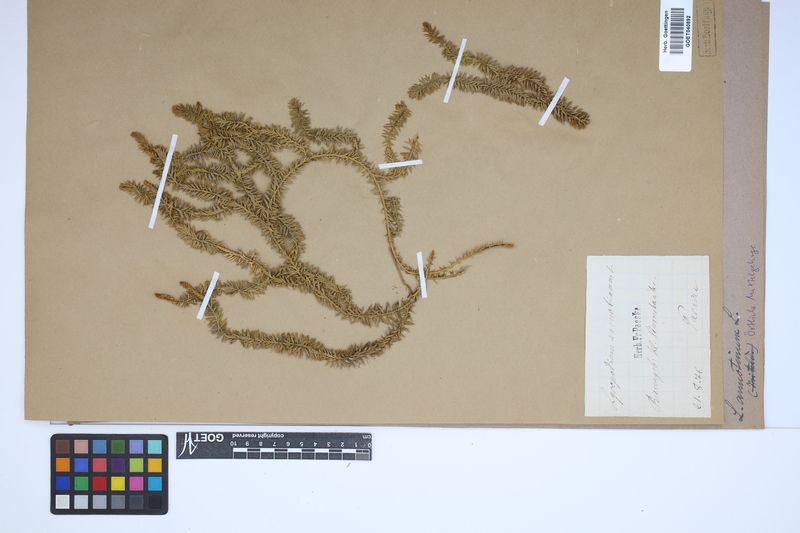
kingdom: Plantae
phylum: Tracheophyta
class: Lycopodiopsida
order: Lycopodiales
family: Lycopodiaceae
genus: Spinulum
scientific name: Spinulum annotinum
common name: Interrupted club-moss
